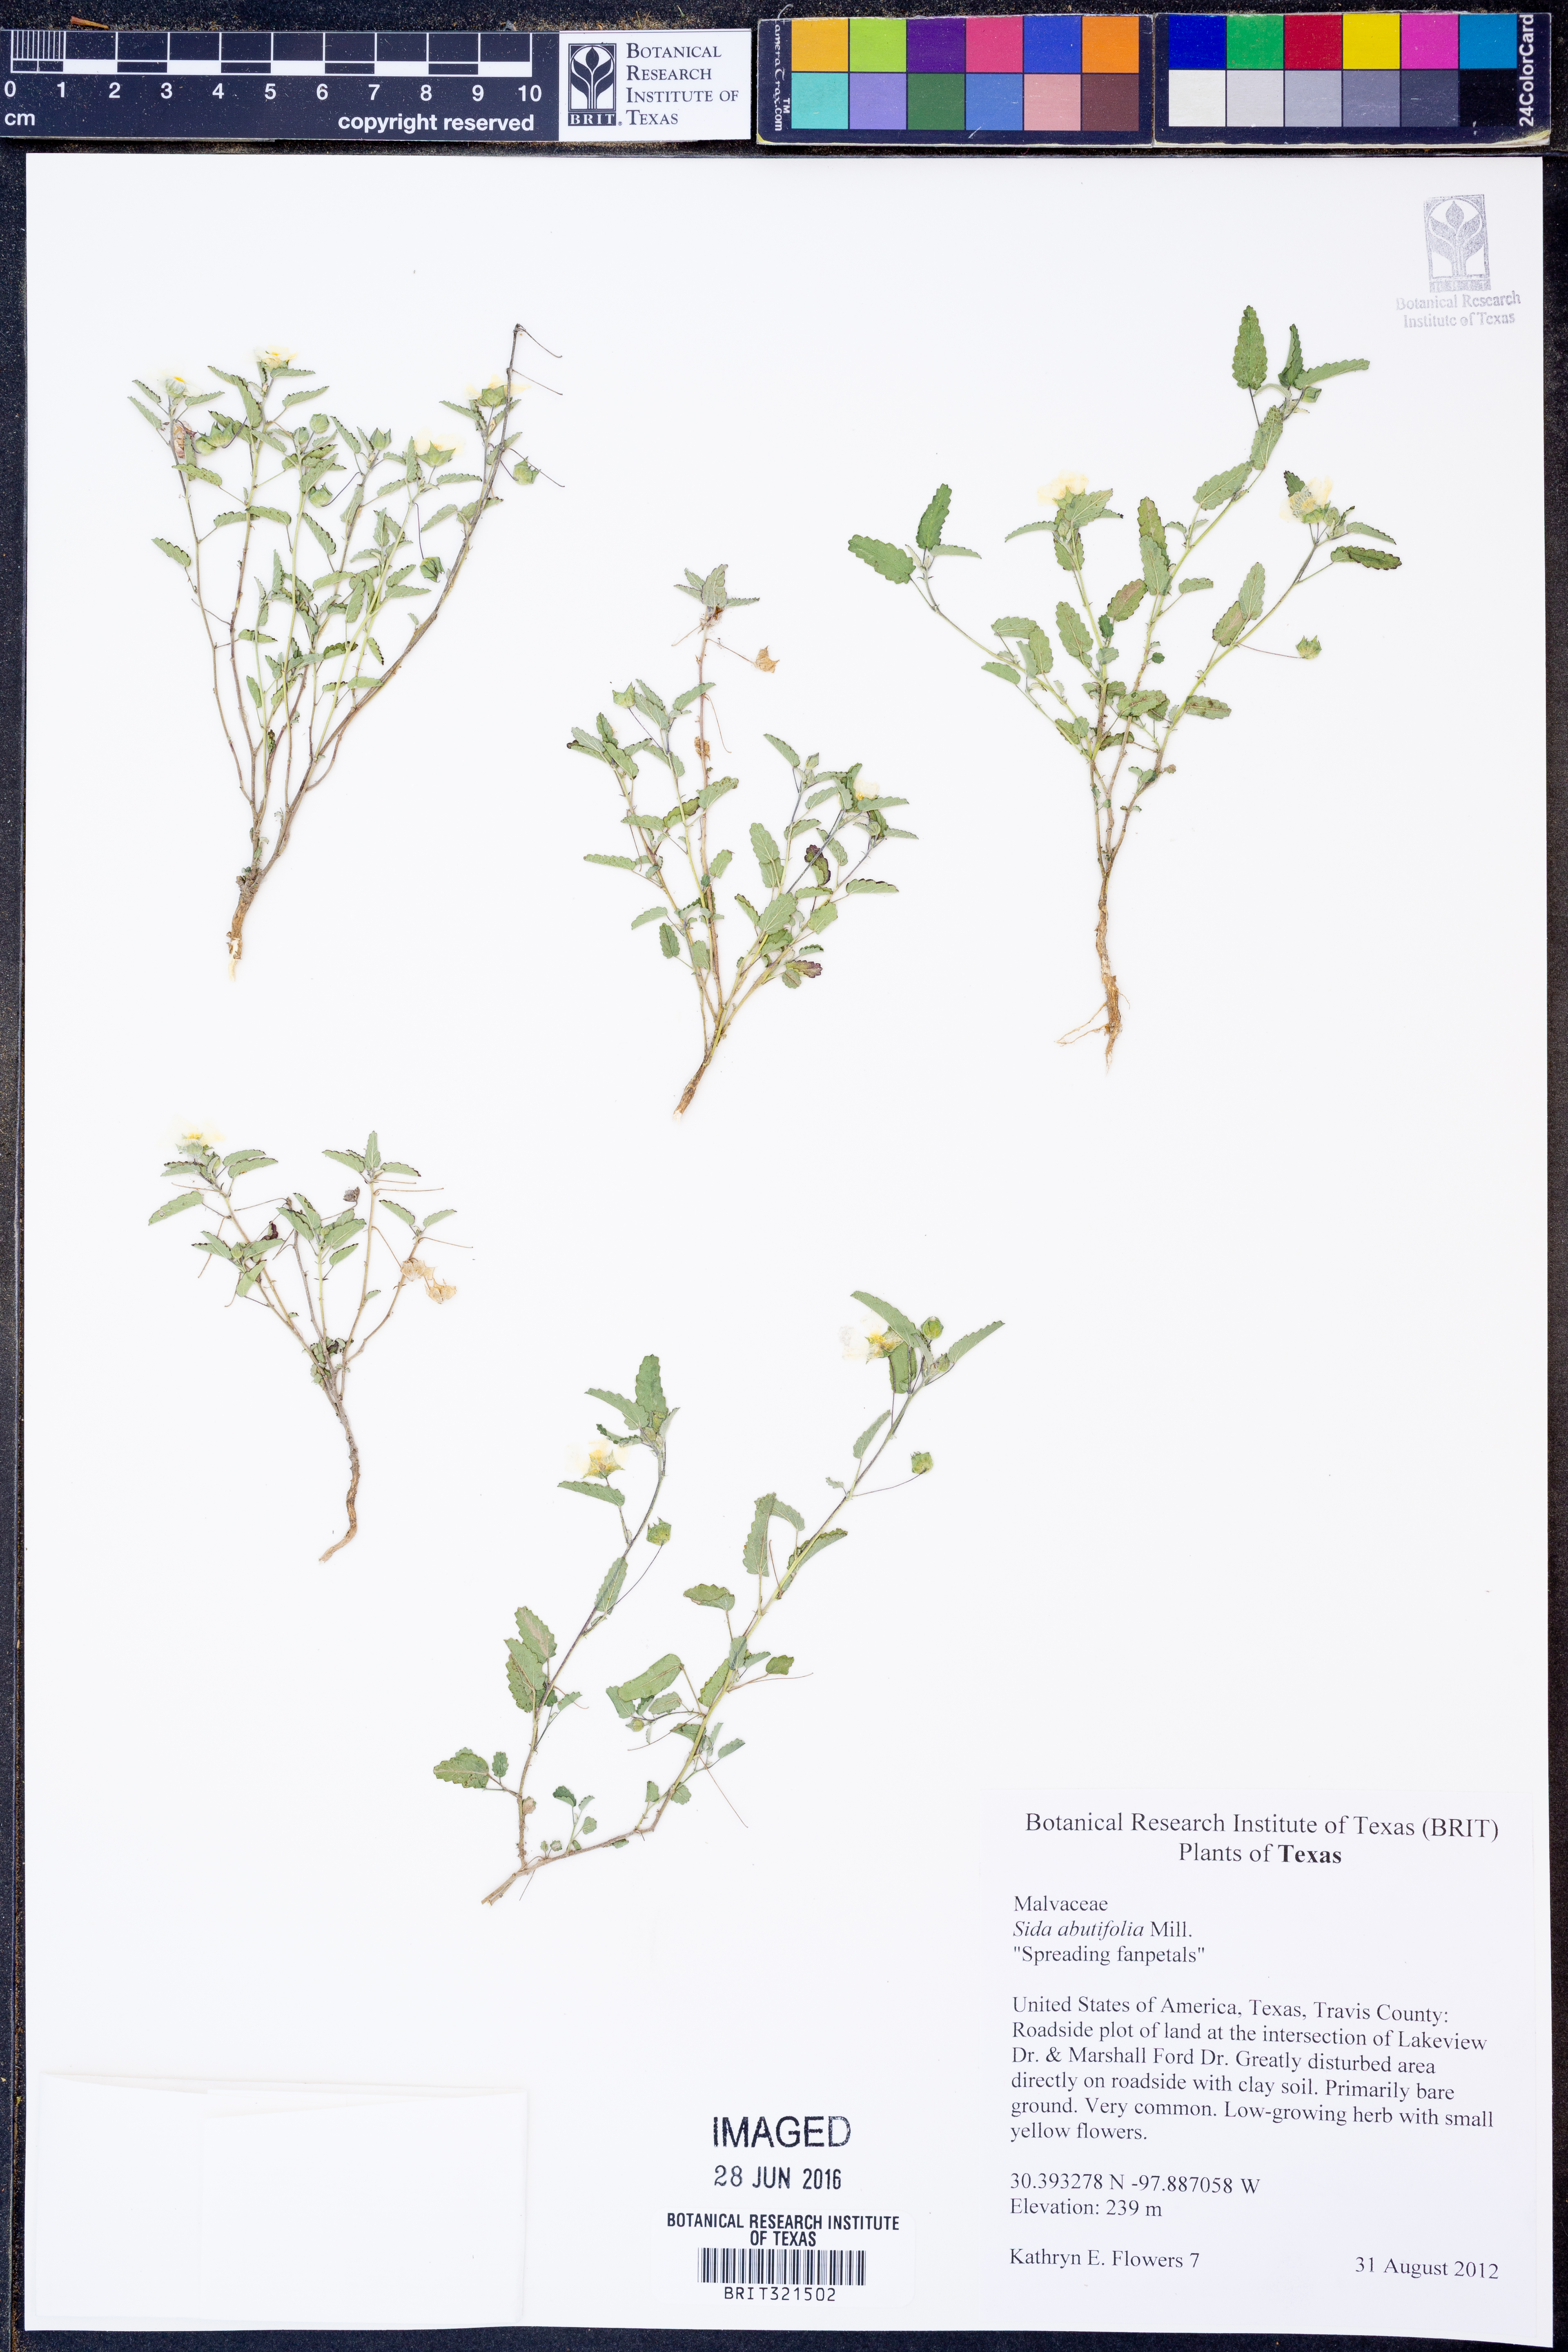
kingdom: Plantae
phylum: Tracheophyta
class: Magnoliopsida
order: Malvales
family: Malvaceae
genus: Sida
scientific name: Sida abutifolia
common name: Spreading fantails
